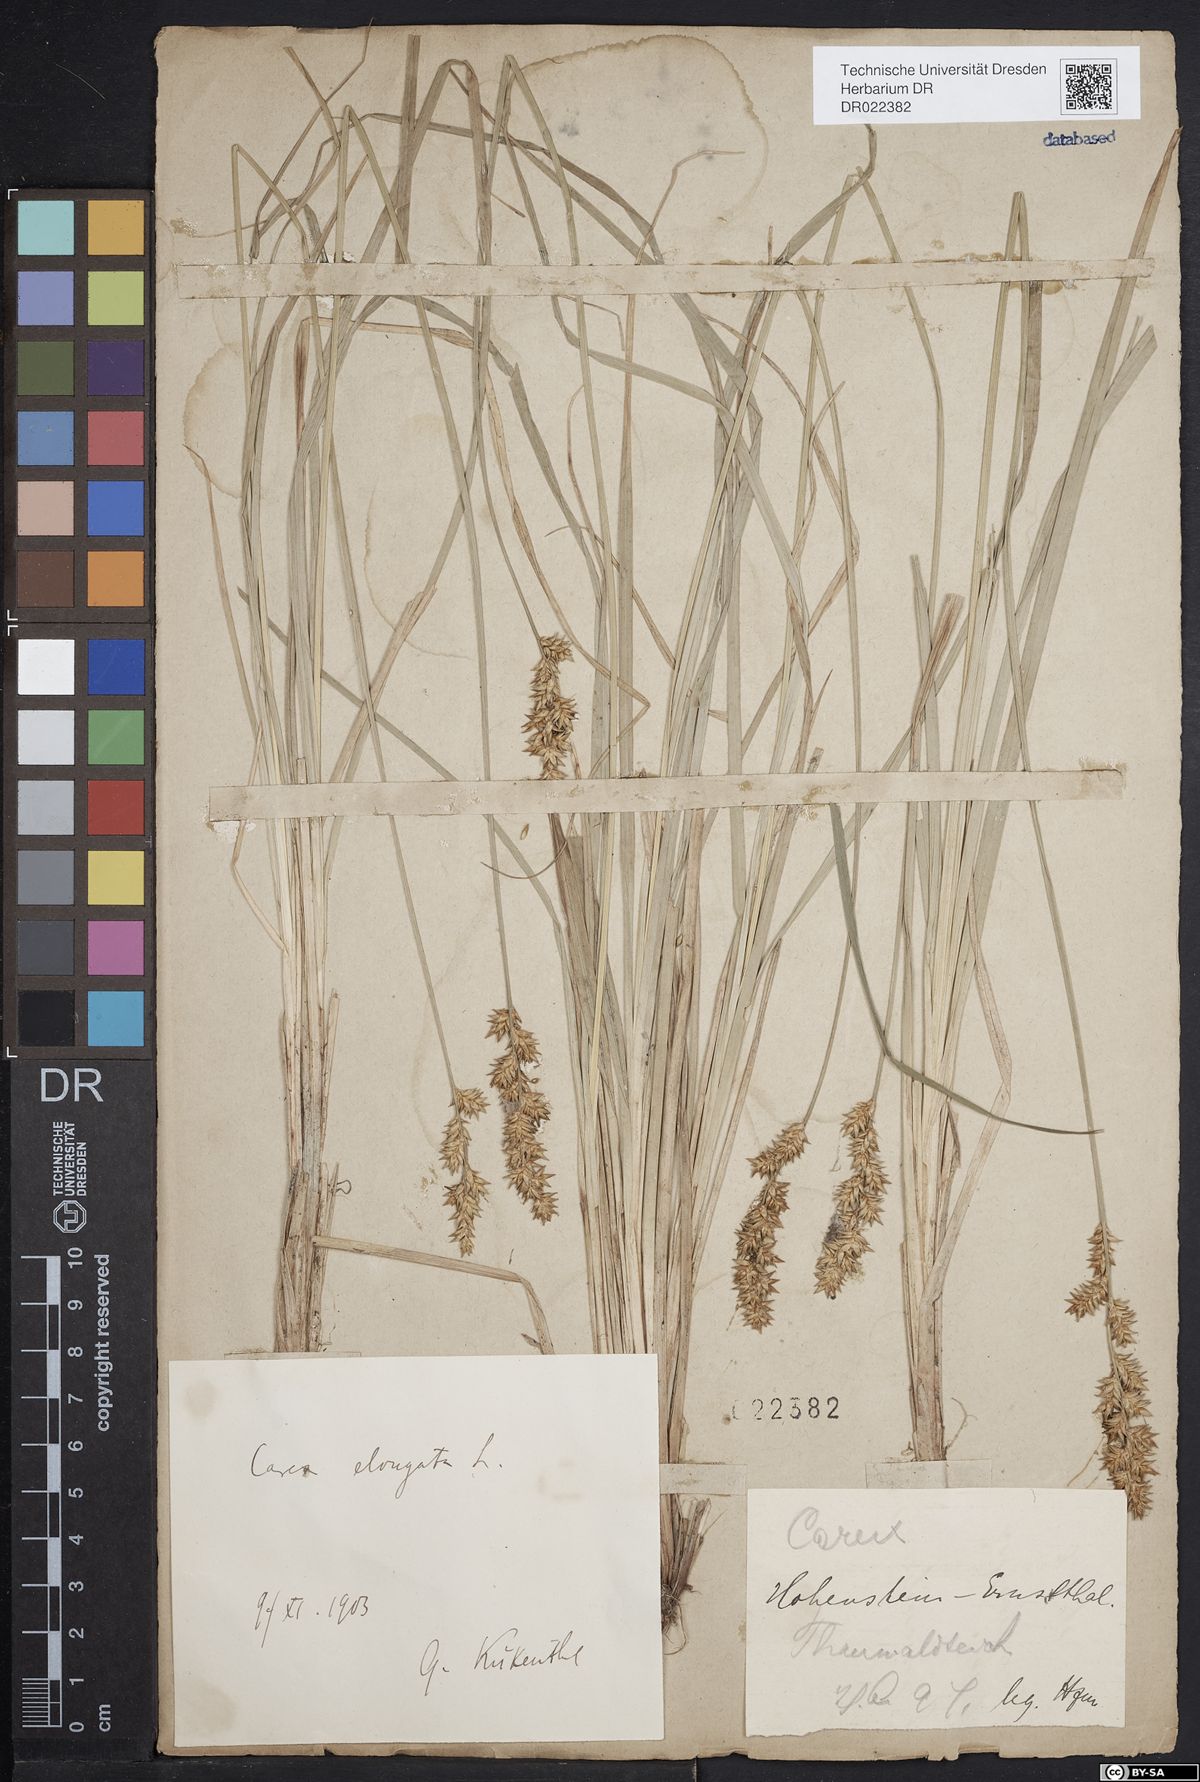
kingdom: Plantae
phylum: Tracheophyta
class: Liliopsida
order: Poales
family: Cyperaceae
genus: Carex
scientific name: Carex elongata
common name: Elongated sedge
